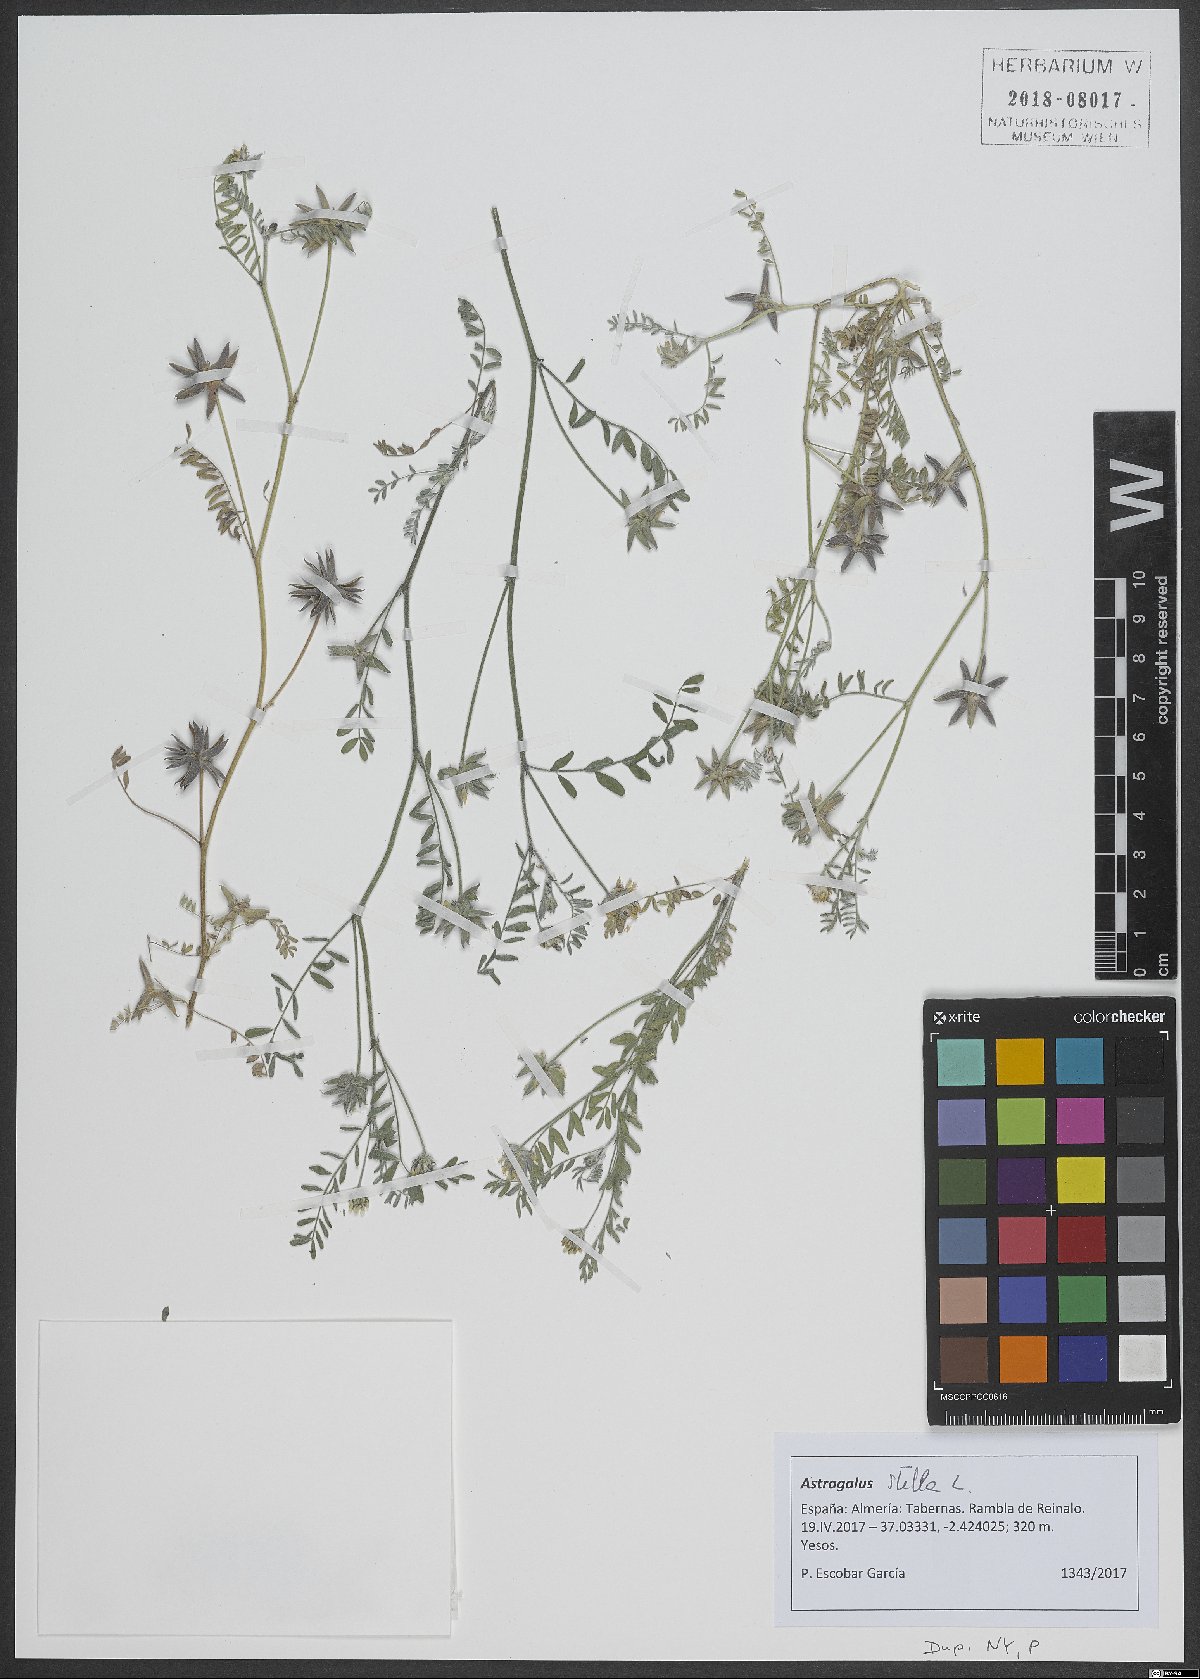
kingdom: Plantae
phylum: Tracheophyta
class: Magnoliopsida
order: Fabales
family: Fabaceae
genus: Astragalus
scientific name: Astragalus stella
